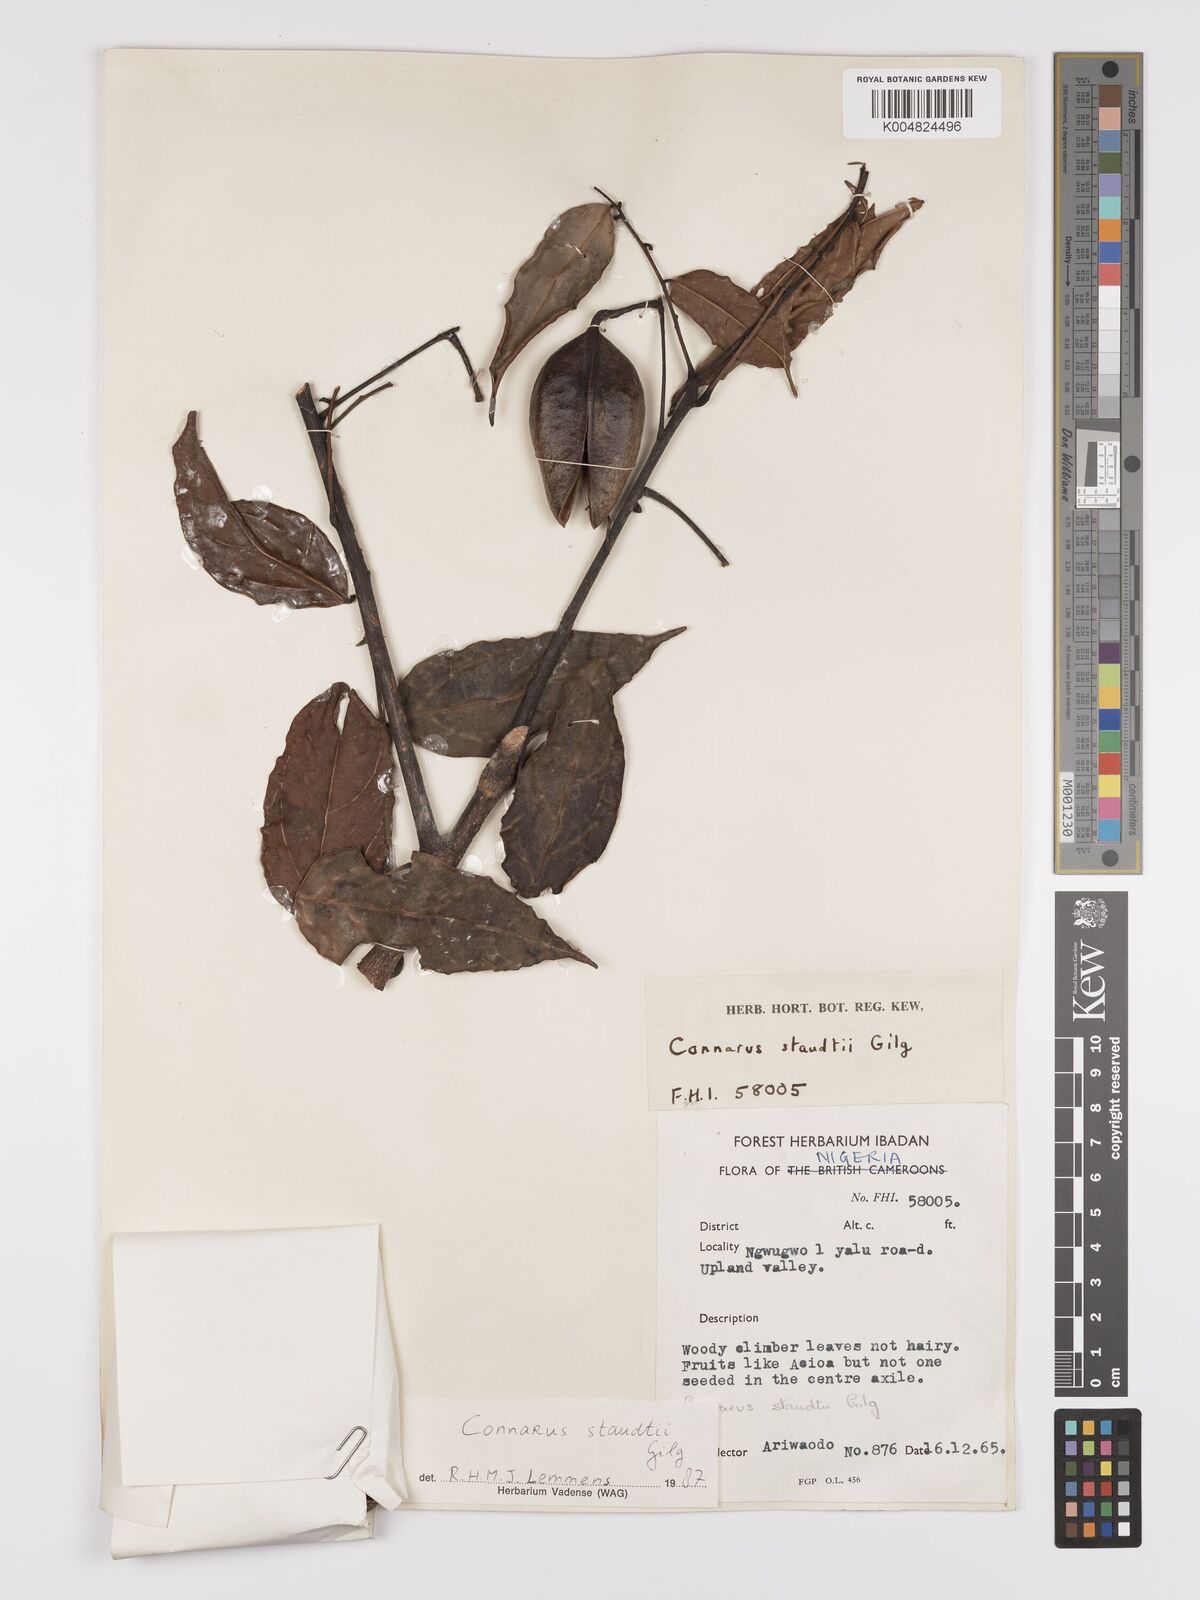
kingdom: Plantae
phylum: Tracheophyta
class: Magnoliopsida
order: Oxalidales
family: Connaraceae
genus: Connarus
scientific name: Connarus staudtii
